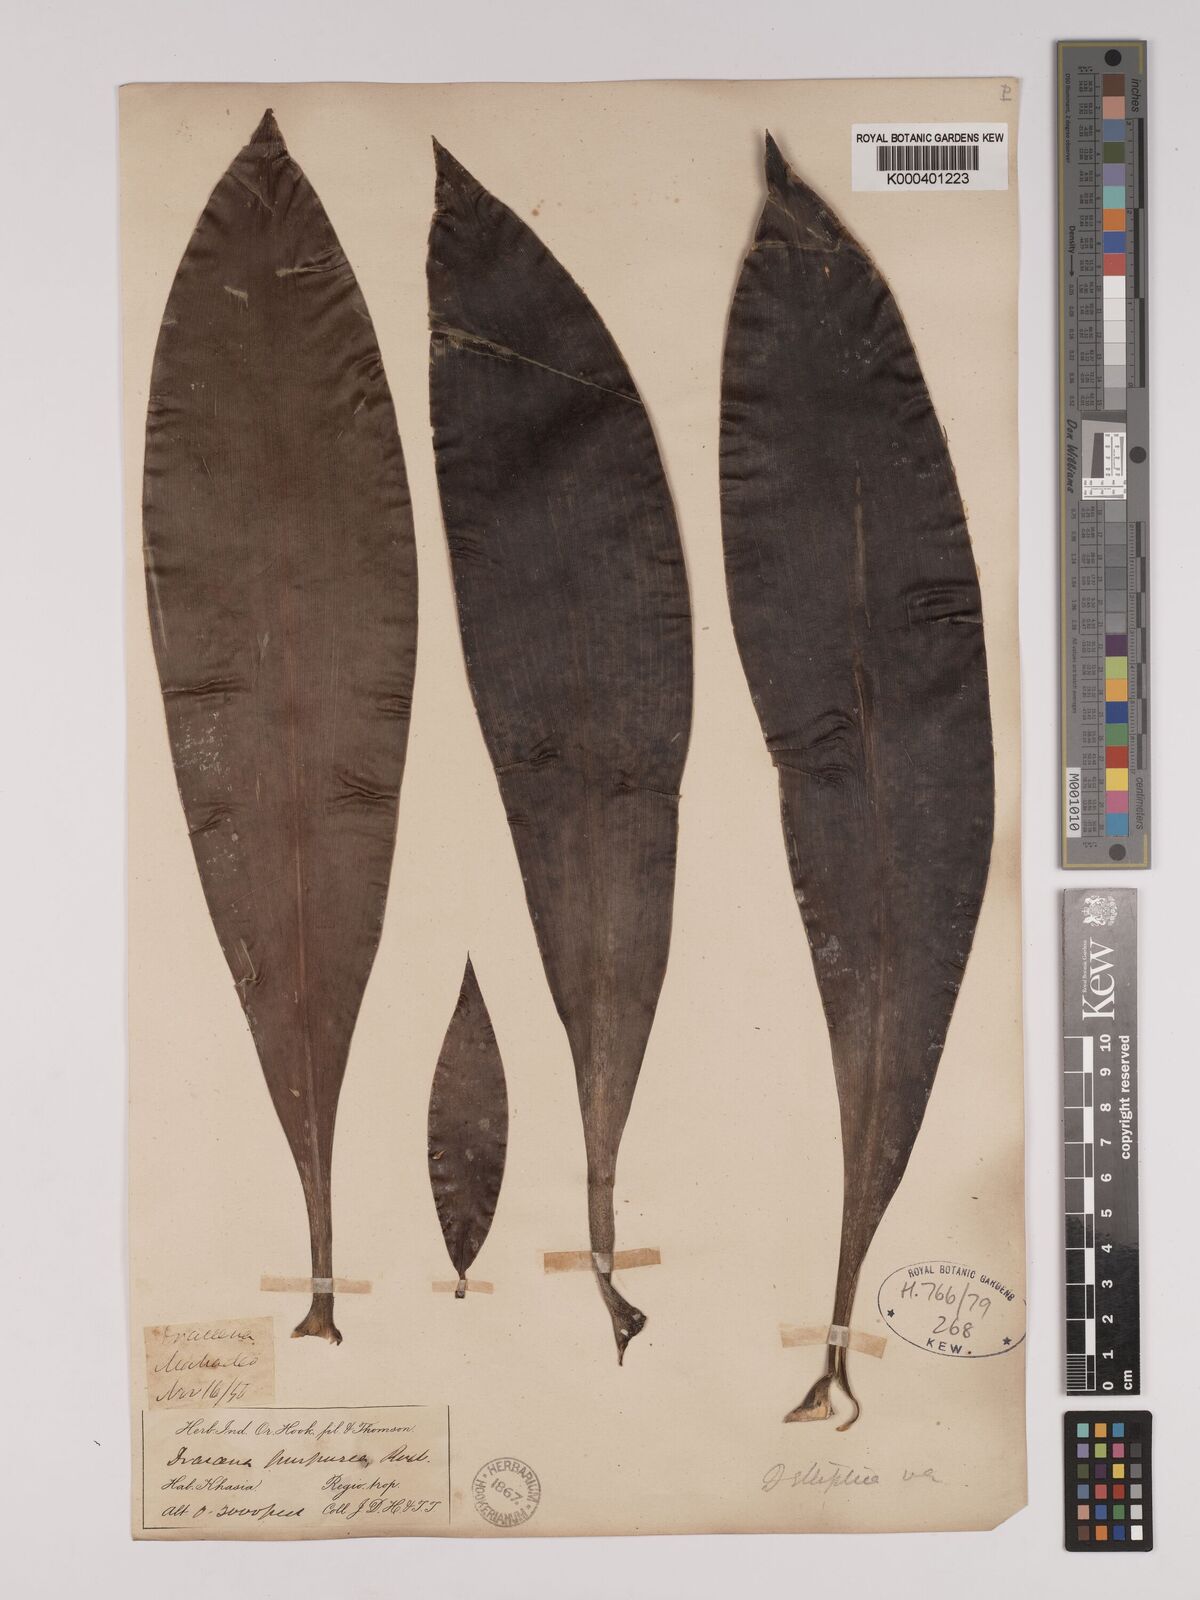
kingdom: Plantae
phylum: Tracheophyta
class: Liliopsida
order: Asparagales
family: Asparagaceae
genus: Dracaena
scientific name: Dracaena elliptica
